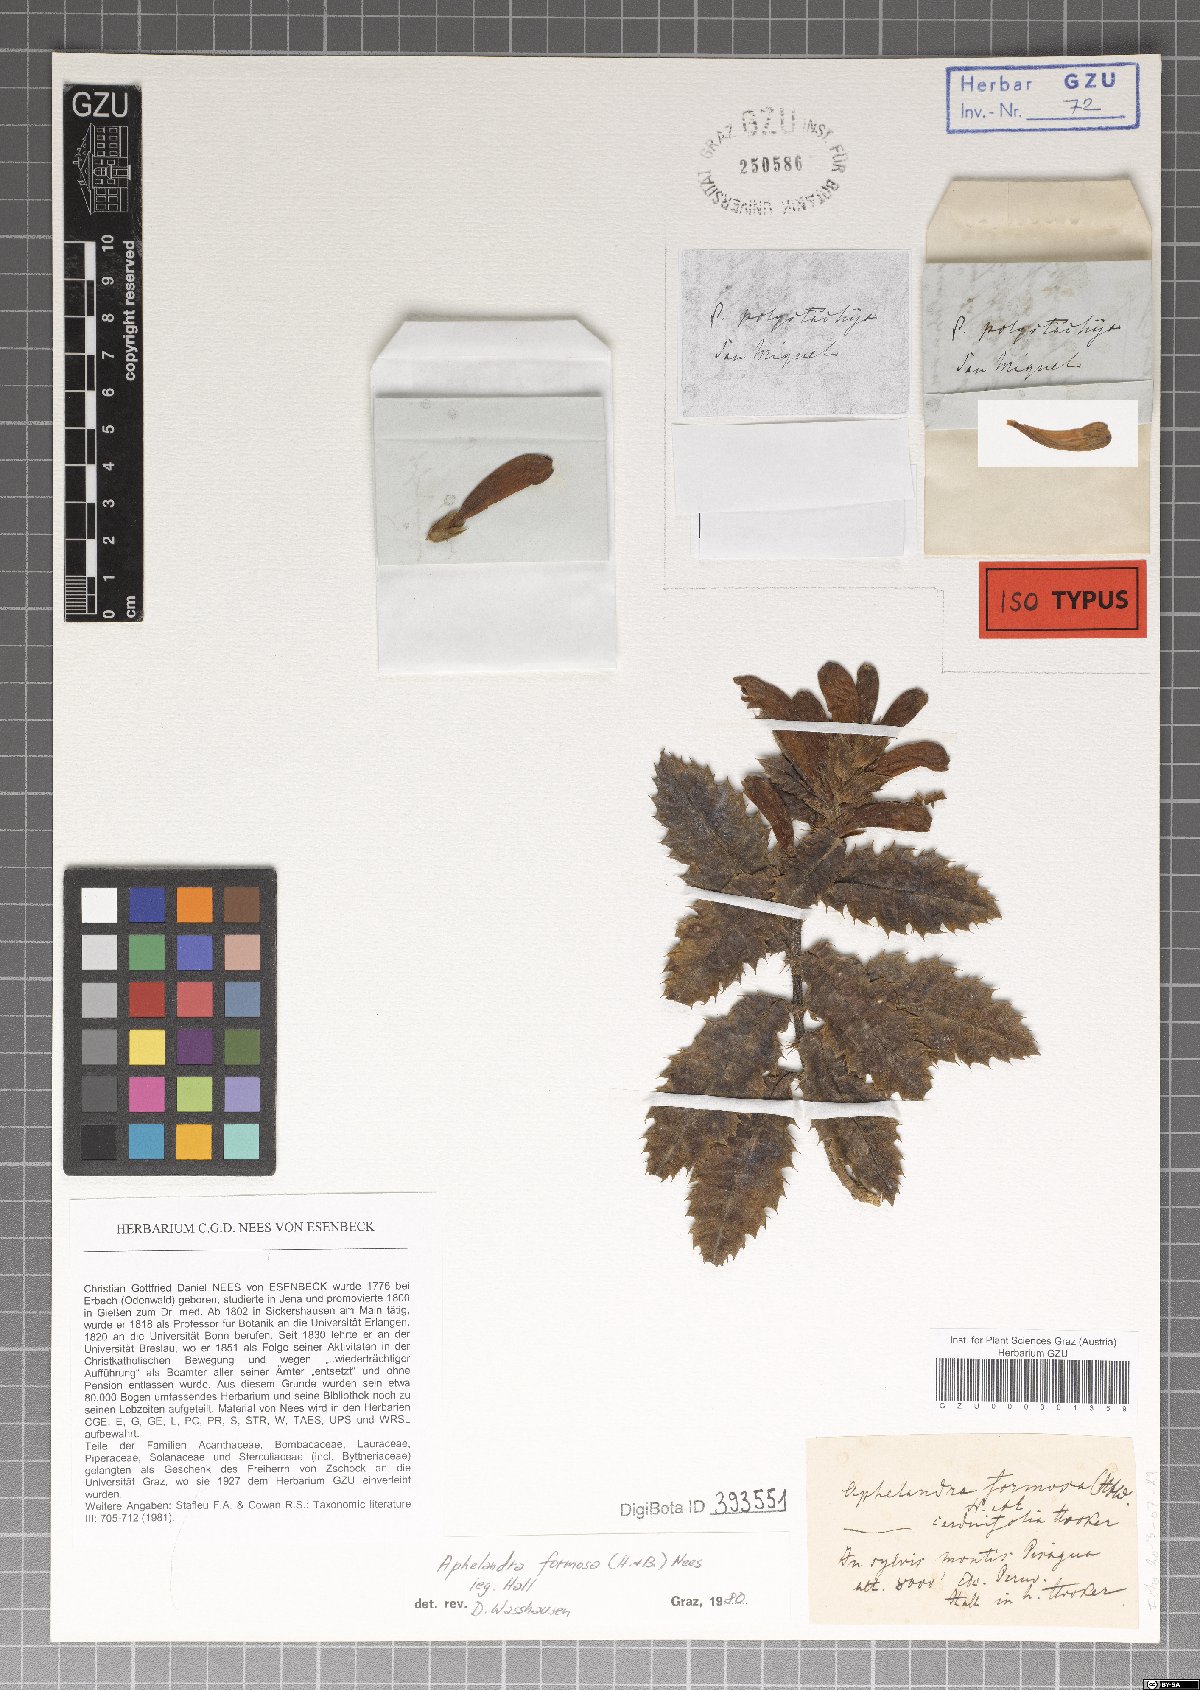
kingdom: Plantae
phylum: Tracheophyta
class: Magnoliopsida
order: Lamiales
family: Acanthaceae
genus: Aphelandra
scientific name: Aphelandra formosa
